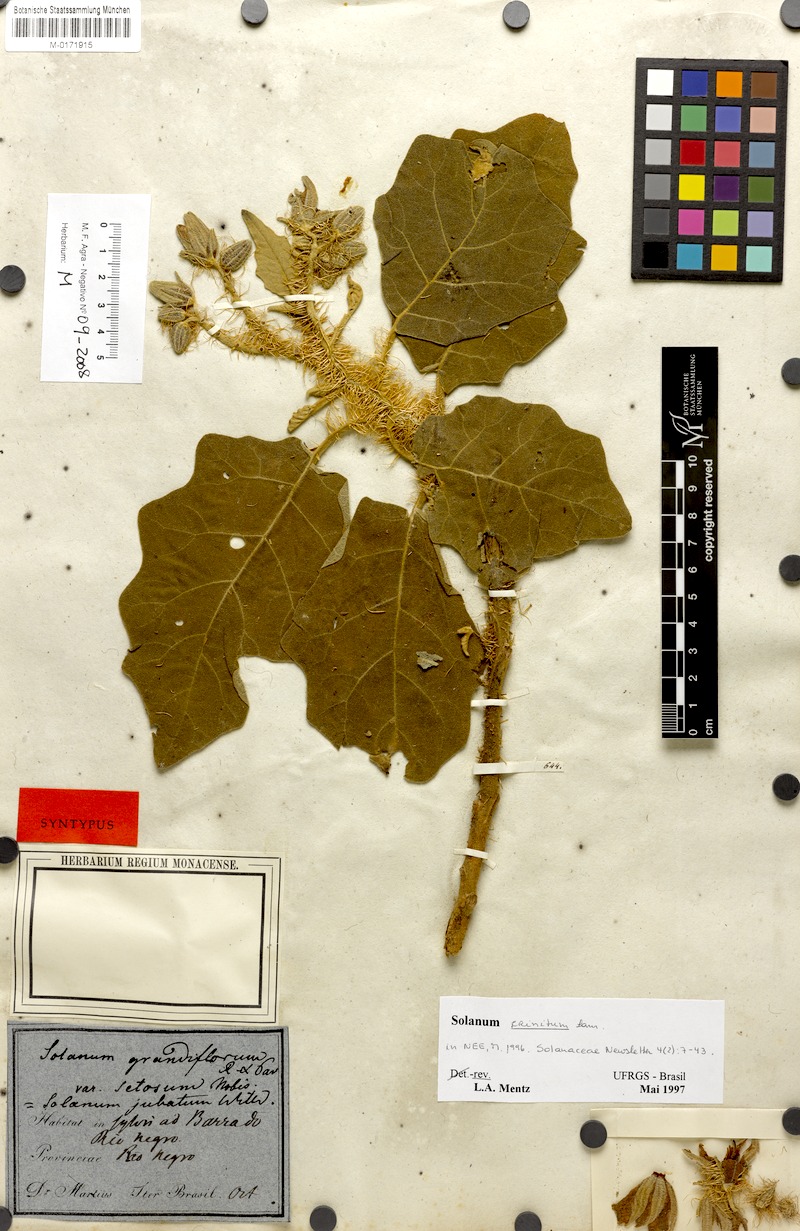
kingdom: Plantae
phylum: Tracheophyta
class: Magnoliopsida
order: Solanales
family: Solanaceae
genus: Solanum
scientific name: Solanum crinitum
